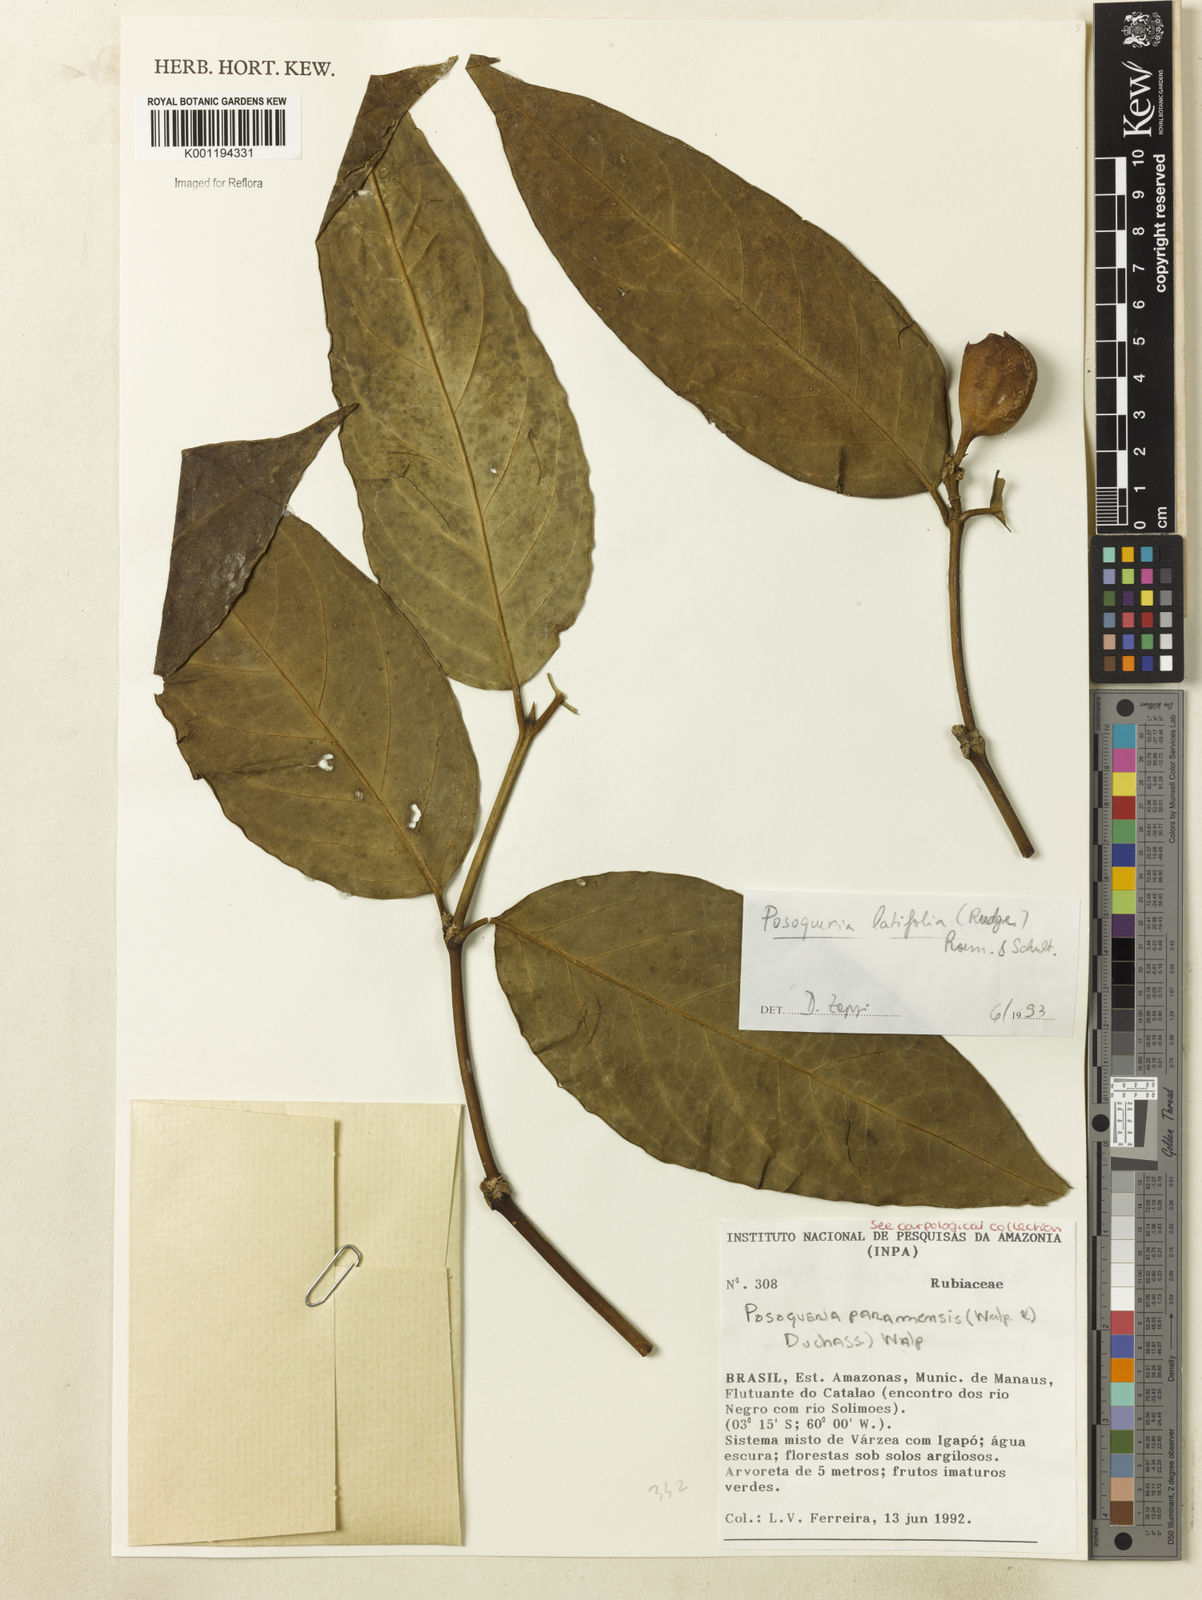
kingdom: Plantae
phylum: Tracheophyta
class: Magnoliopsida
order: Gentianales
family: Rubiaceae
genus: Posoqueria
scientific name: Posoqueria latifolia
